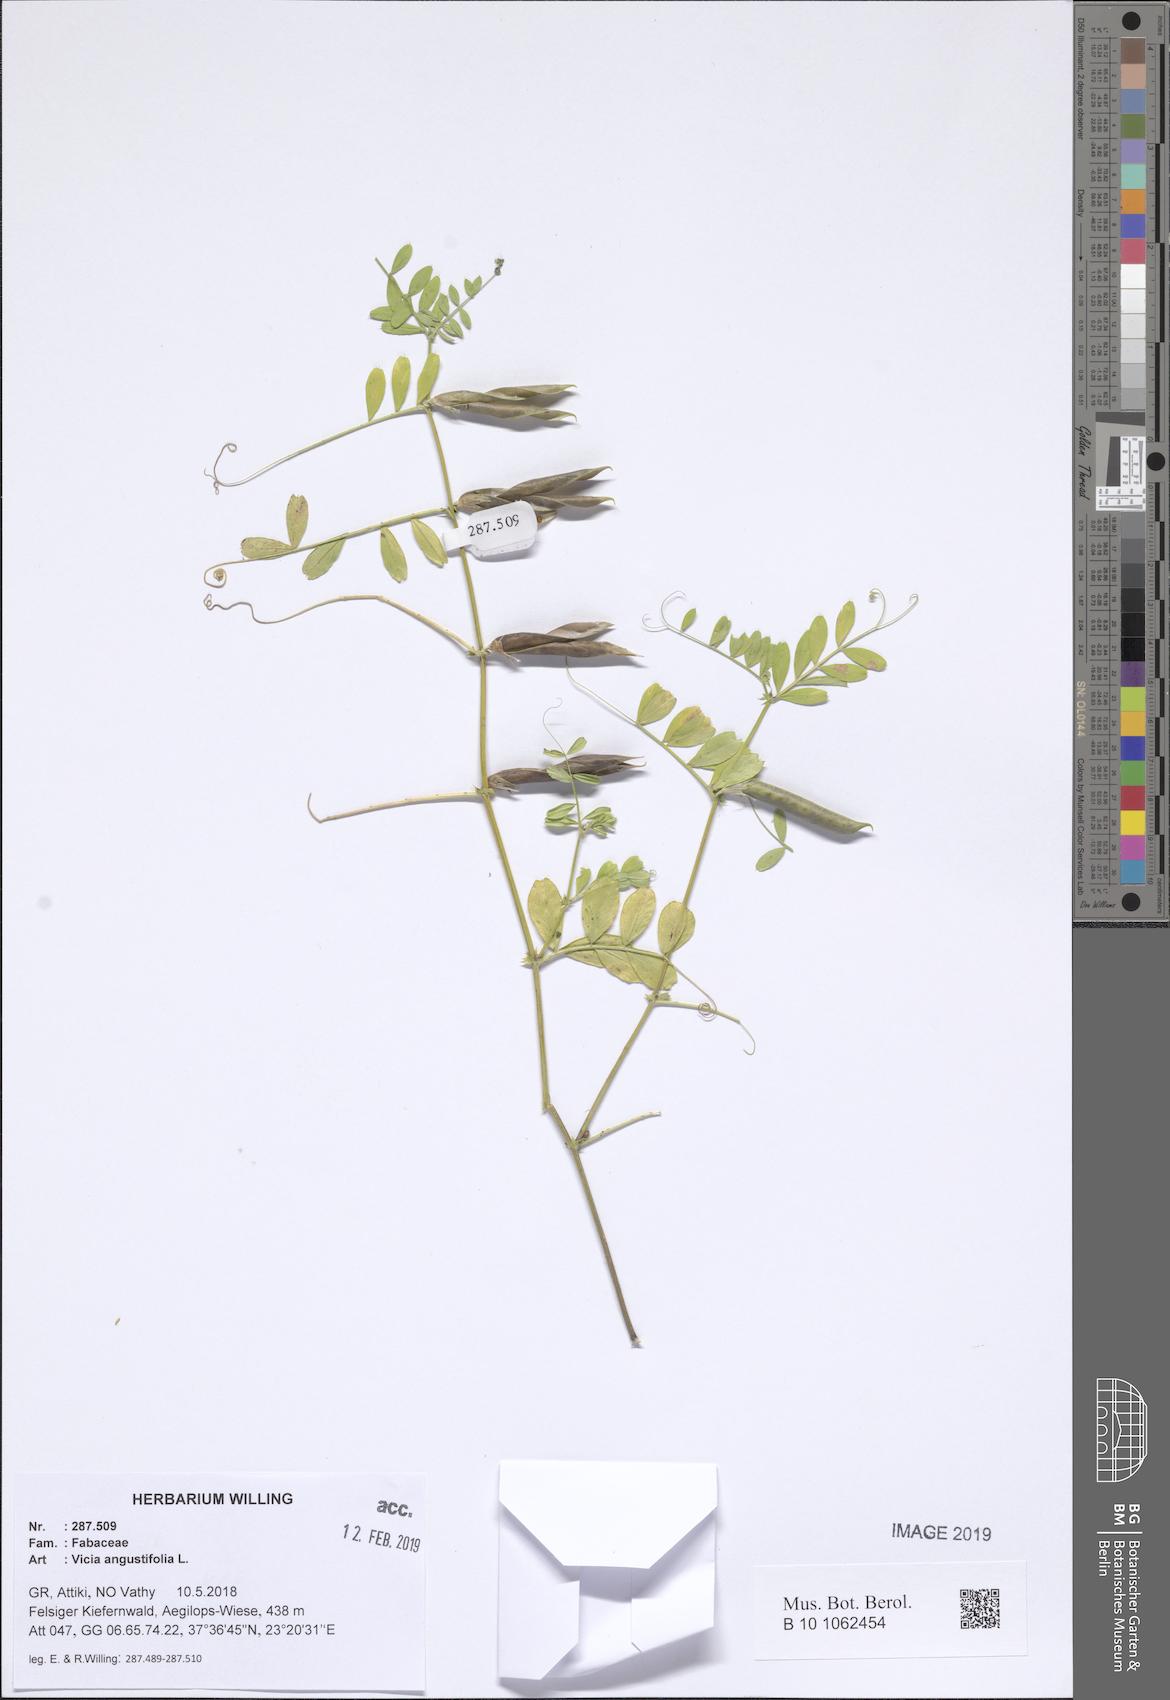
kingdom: Plantae
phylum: Tracheophyta
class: Magnoliopsida
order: Fabales
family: Fabaceae
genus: Vicia
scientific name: Vicia sativa
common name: Garden vetch
